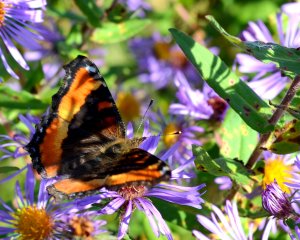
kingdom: Animalia
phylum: Arthropoda
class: Insecta
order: Lepidoptera
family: Nymphalidae
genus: Aglais
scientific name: Aglais milberti
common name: Milbert's Tortoiseshell
